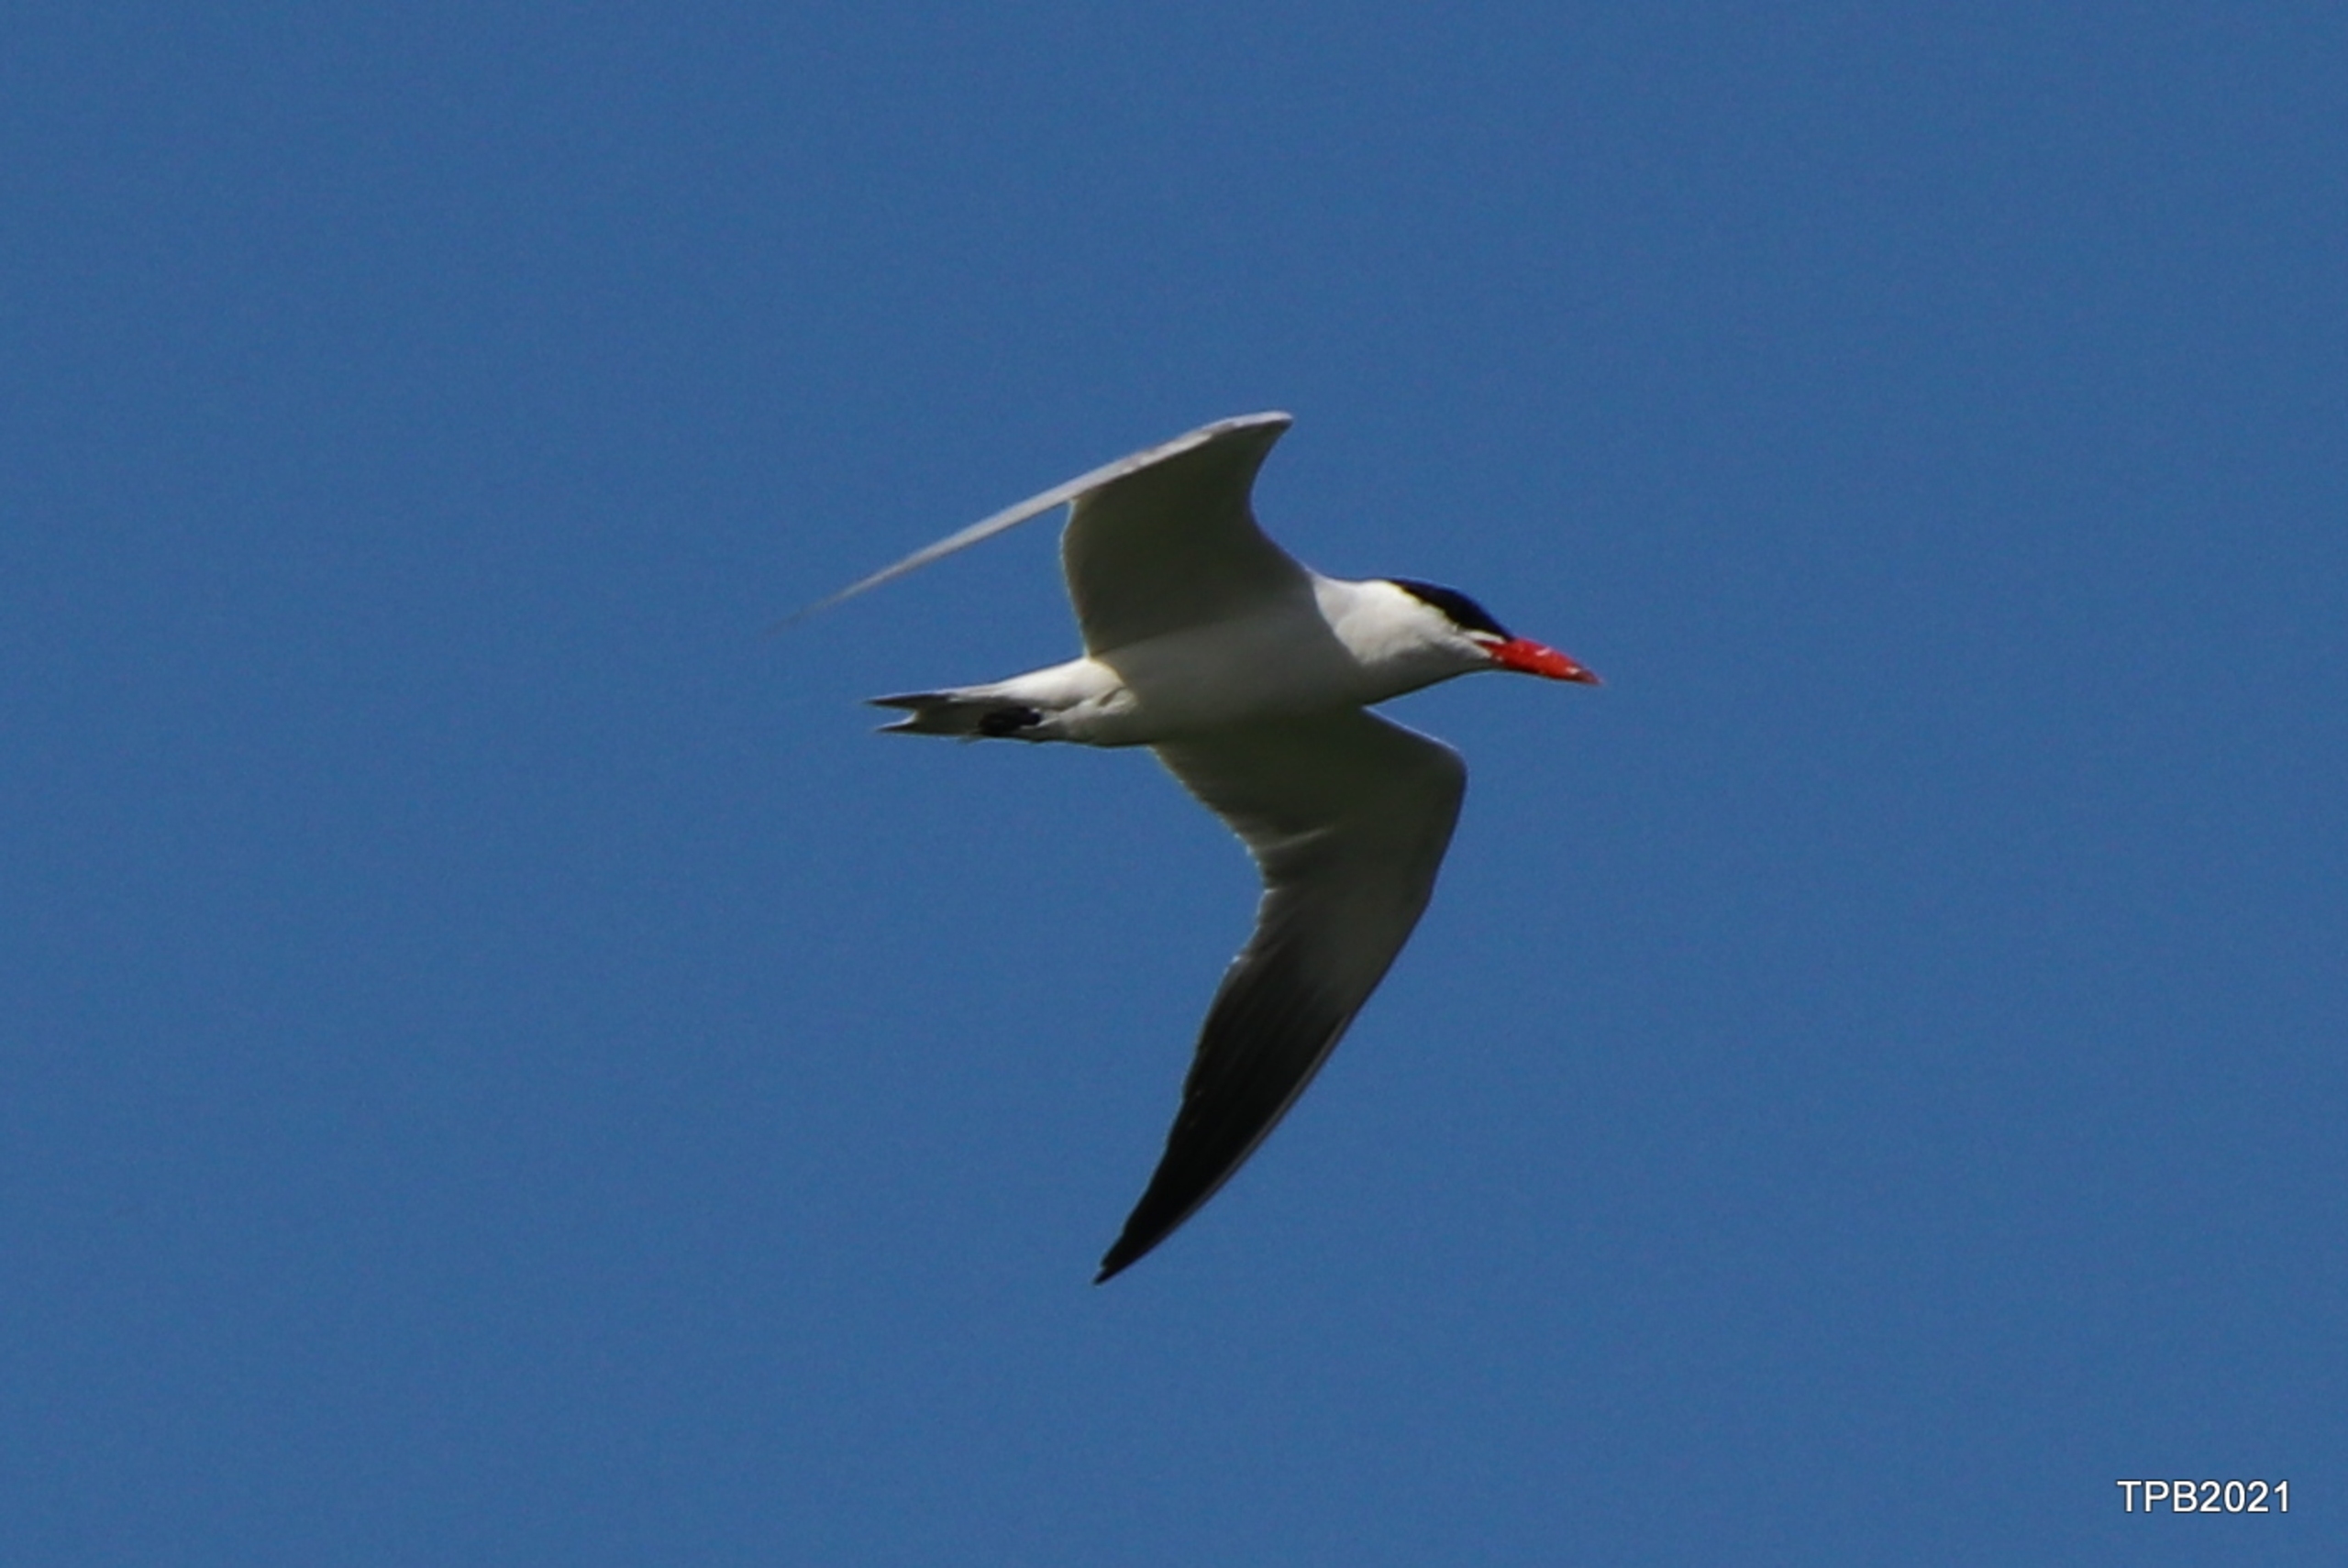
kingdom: Animalia
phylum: Chordata
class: Aves
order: Charadriiformes
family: Laridae
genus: Hydroprogne
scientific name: Hydroprogne caspia
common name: Rovterne
